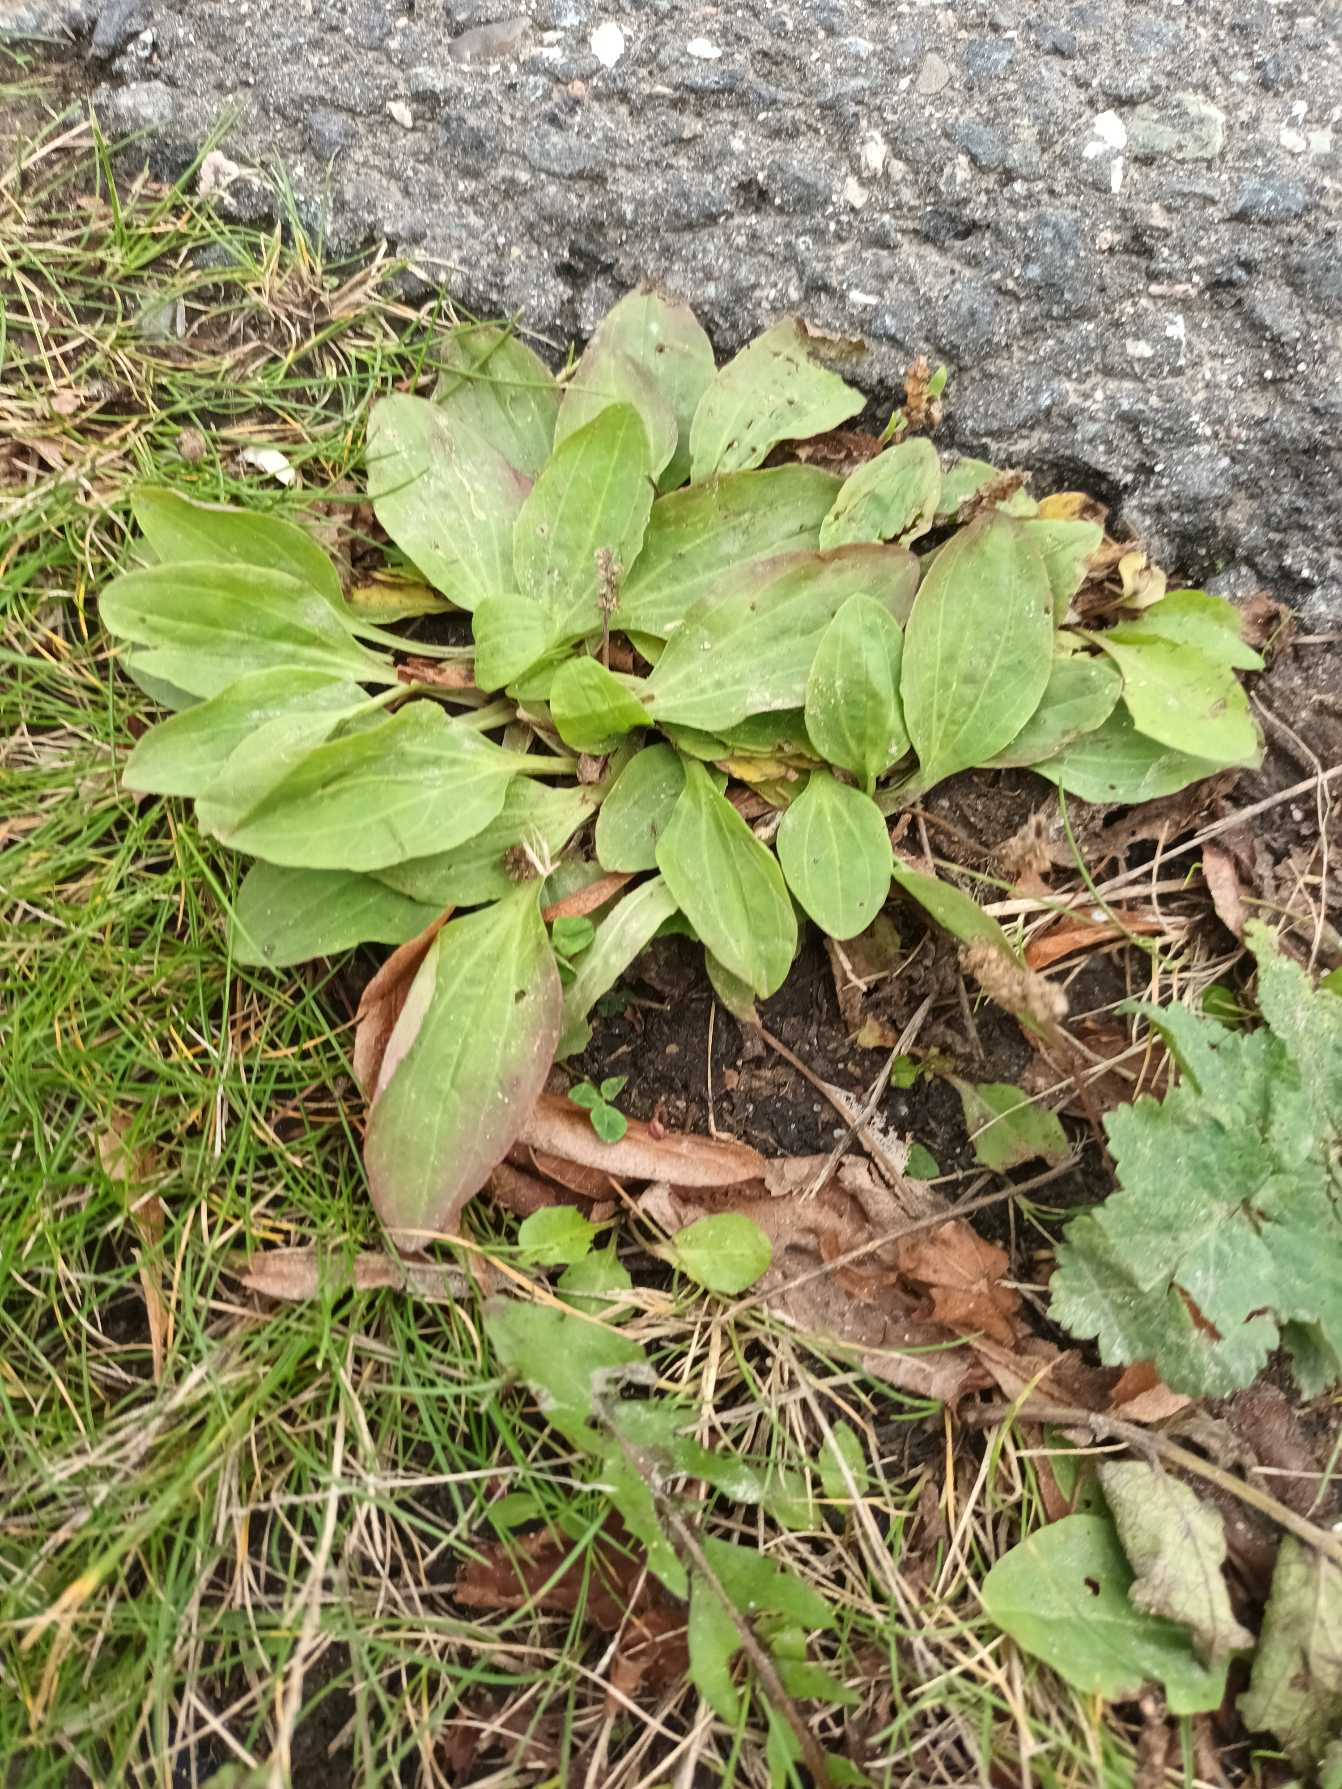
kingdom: Plantae
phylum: Tracheophyta
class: Magnoliopsida
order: Lamiales
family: Plantaginaceae
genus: Plantago
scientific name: Plantago major
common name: Glat vejbred
